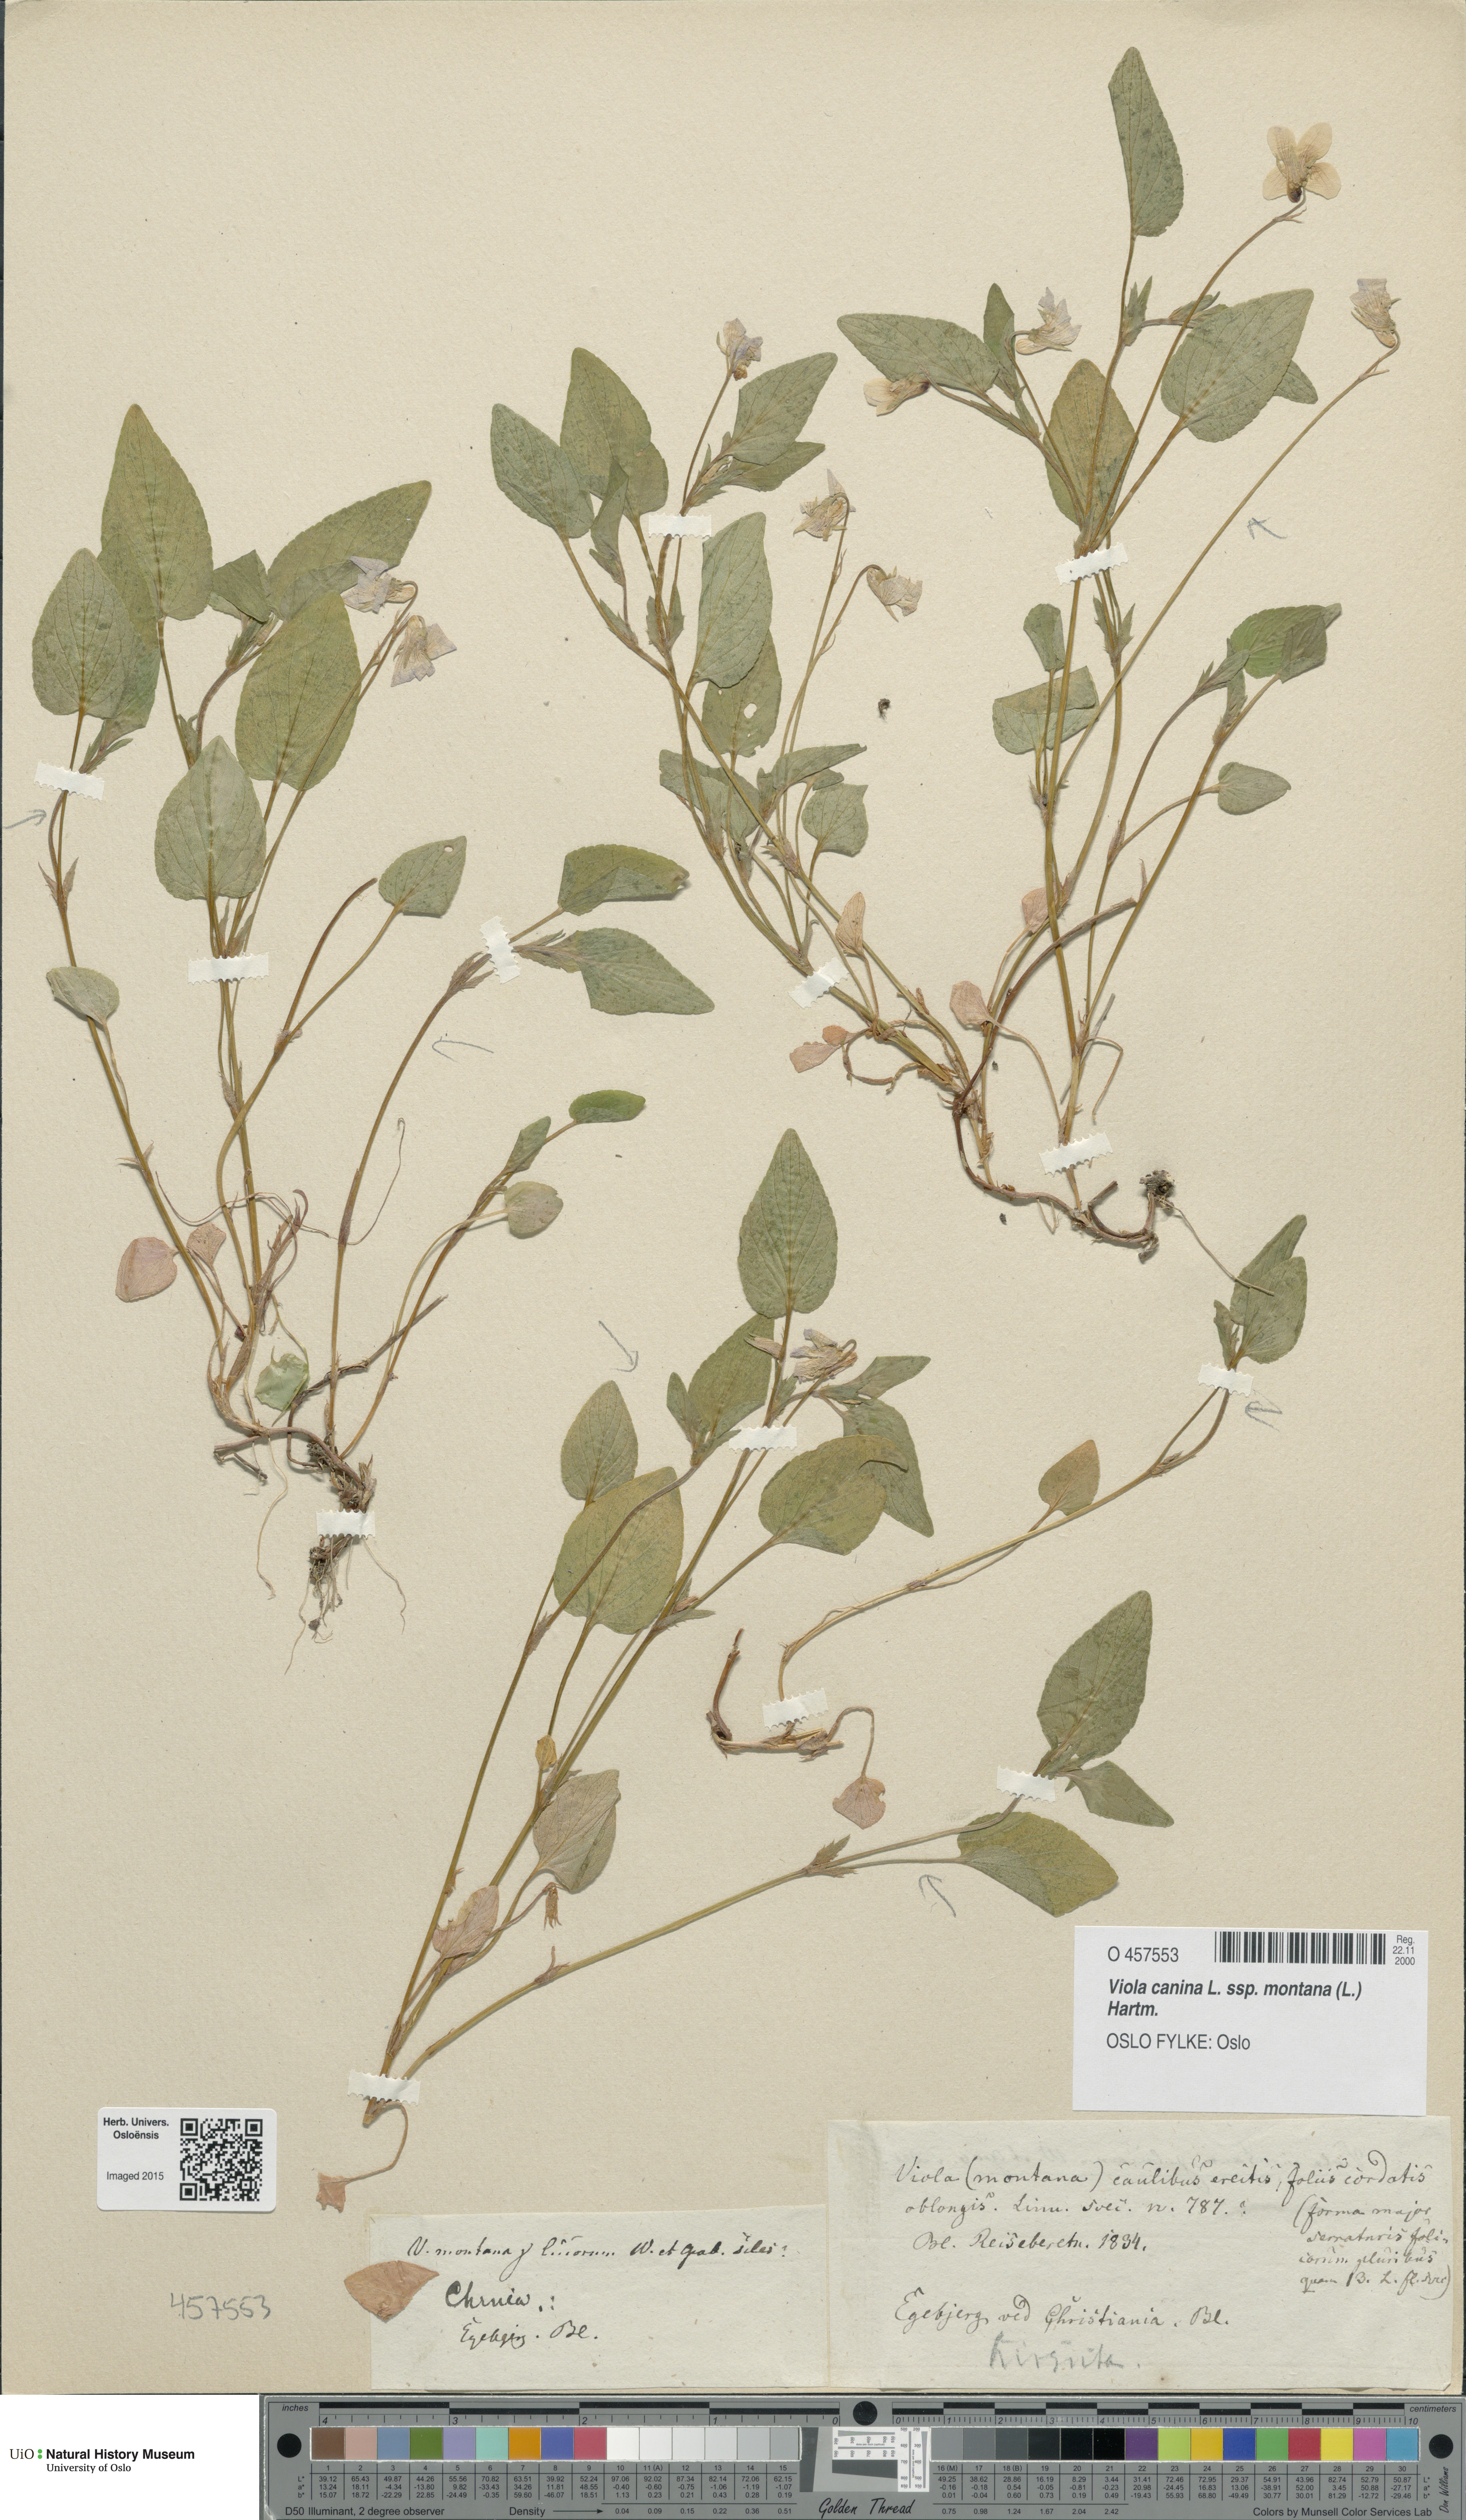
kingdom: Plantae
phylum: Tracheophyta
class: Magnoliopsida
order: Malpighiales
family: Violaceae
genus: Viola
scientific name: Viola ruppii
